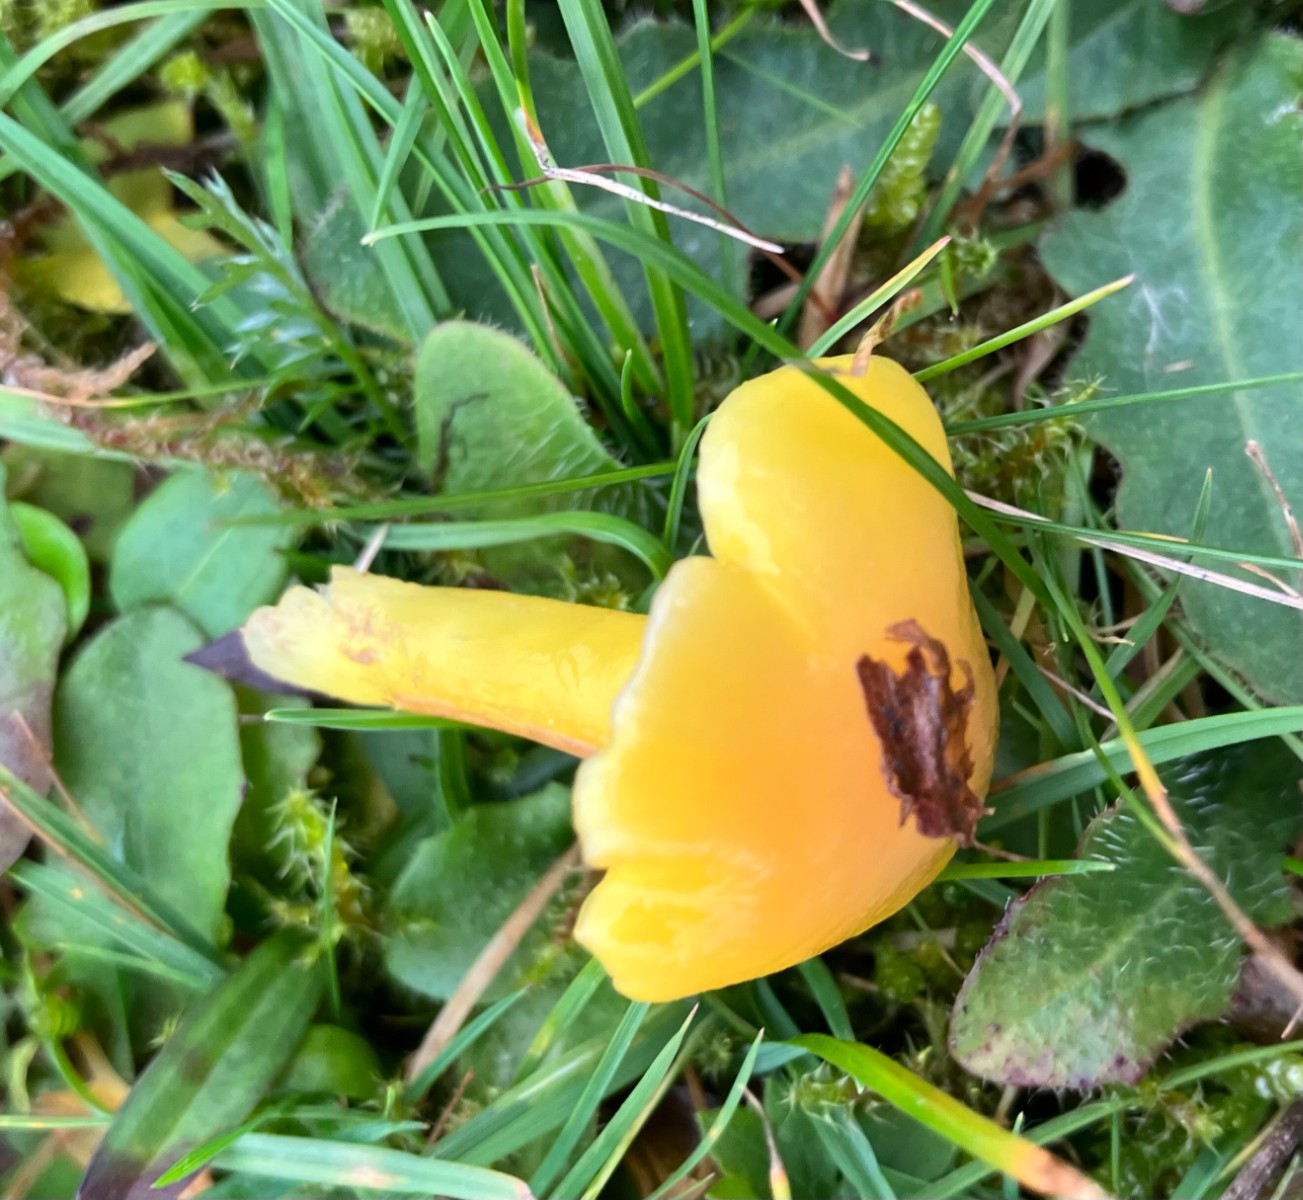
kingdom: Fungi
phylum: Basidiomycota
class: Agaricomycetes
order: Agaricales
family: Hygrophoraceae
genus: Hygrocybe
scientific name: Hygrocybe chlorophana
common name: gul vokshat
